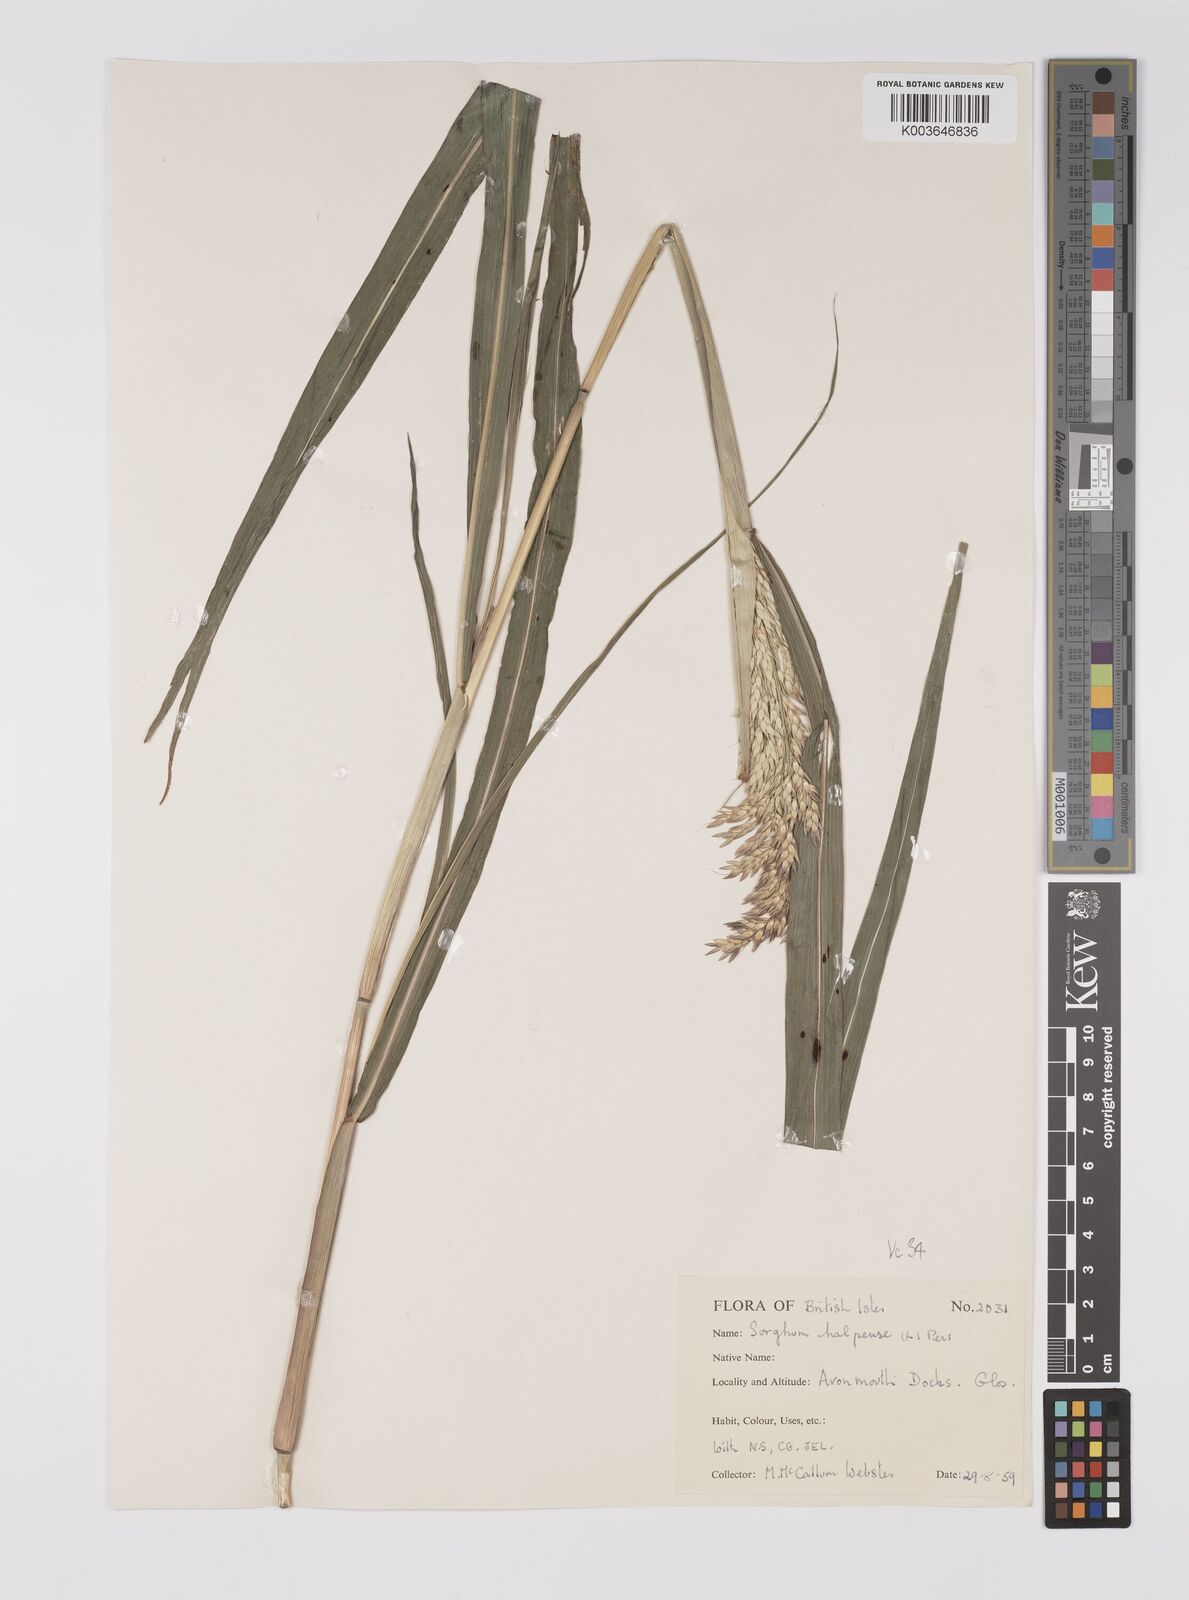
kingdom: Plantae
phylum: Tracheophyta
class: Liliopsida
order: Poales
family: Poaceae
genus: Sorghum
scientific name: Sorghum halepense
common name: Johnson-grass
